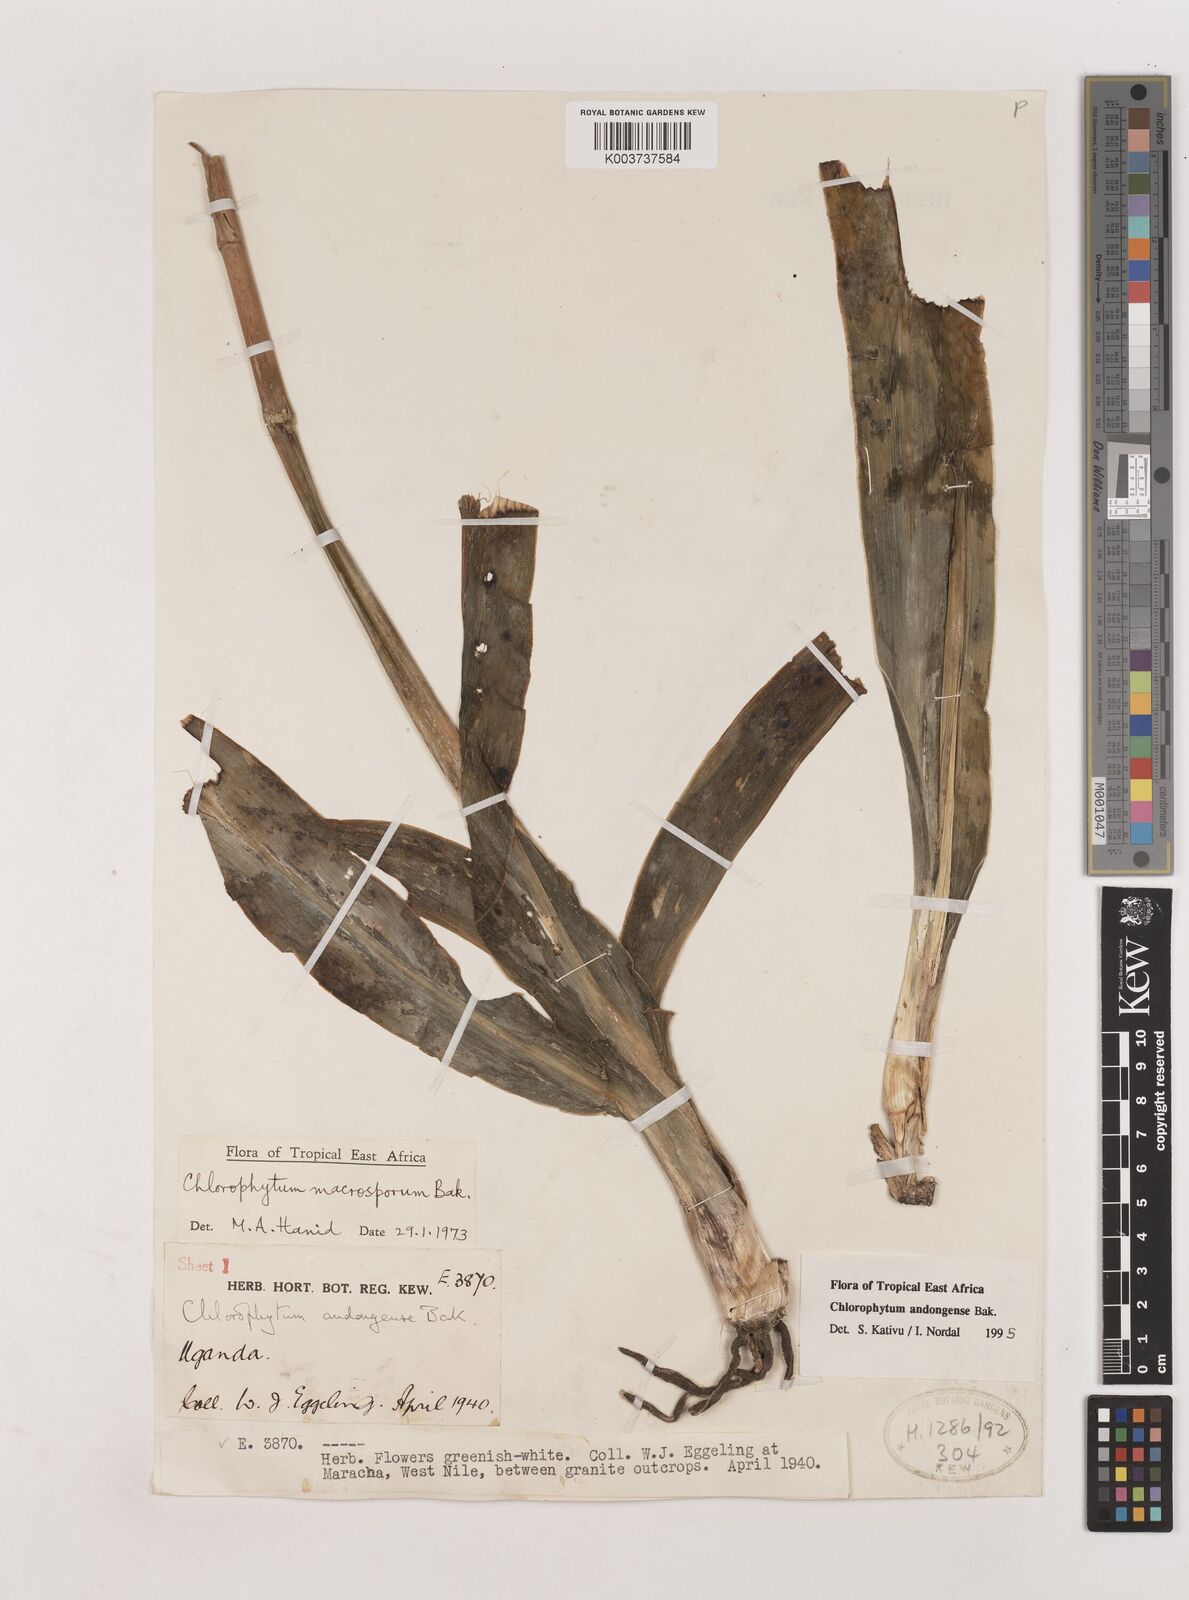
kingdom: Plantae
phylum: Tracheophyta
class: Liliopsida
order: Asparagales
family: Asparagaceae
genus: Chlorophytum
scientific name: Chlorophytum andongense
